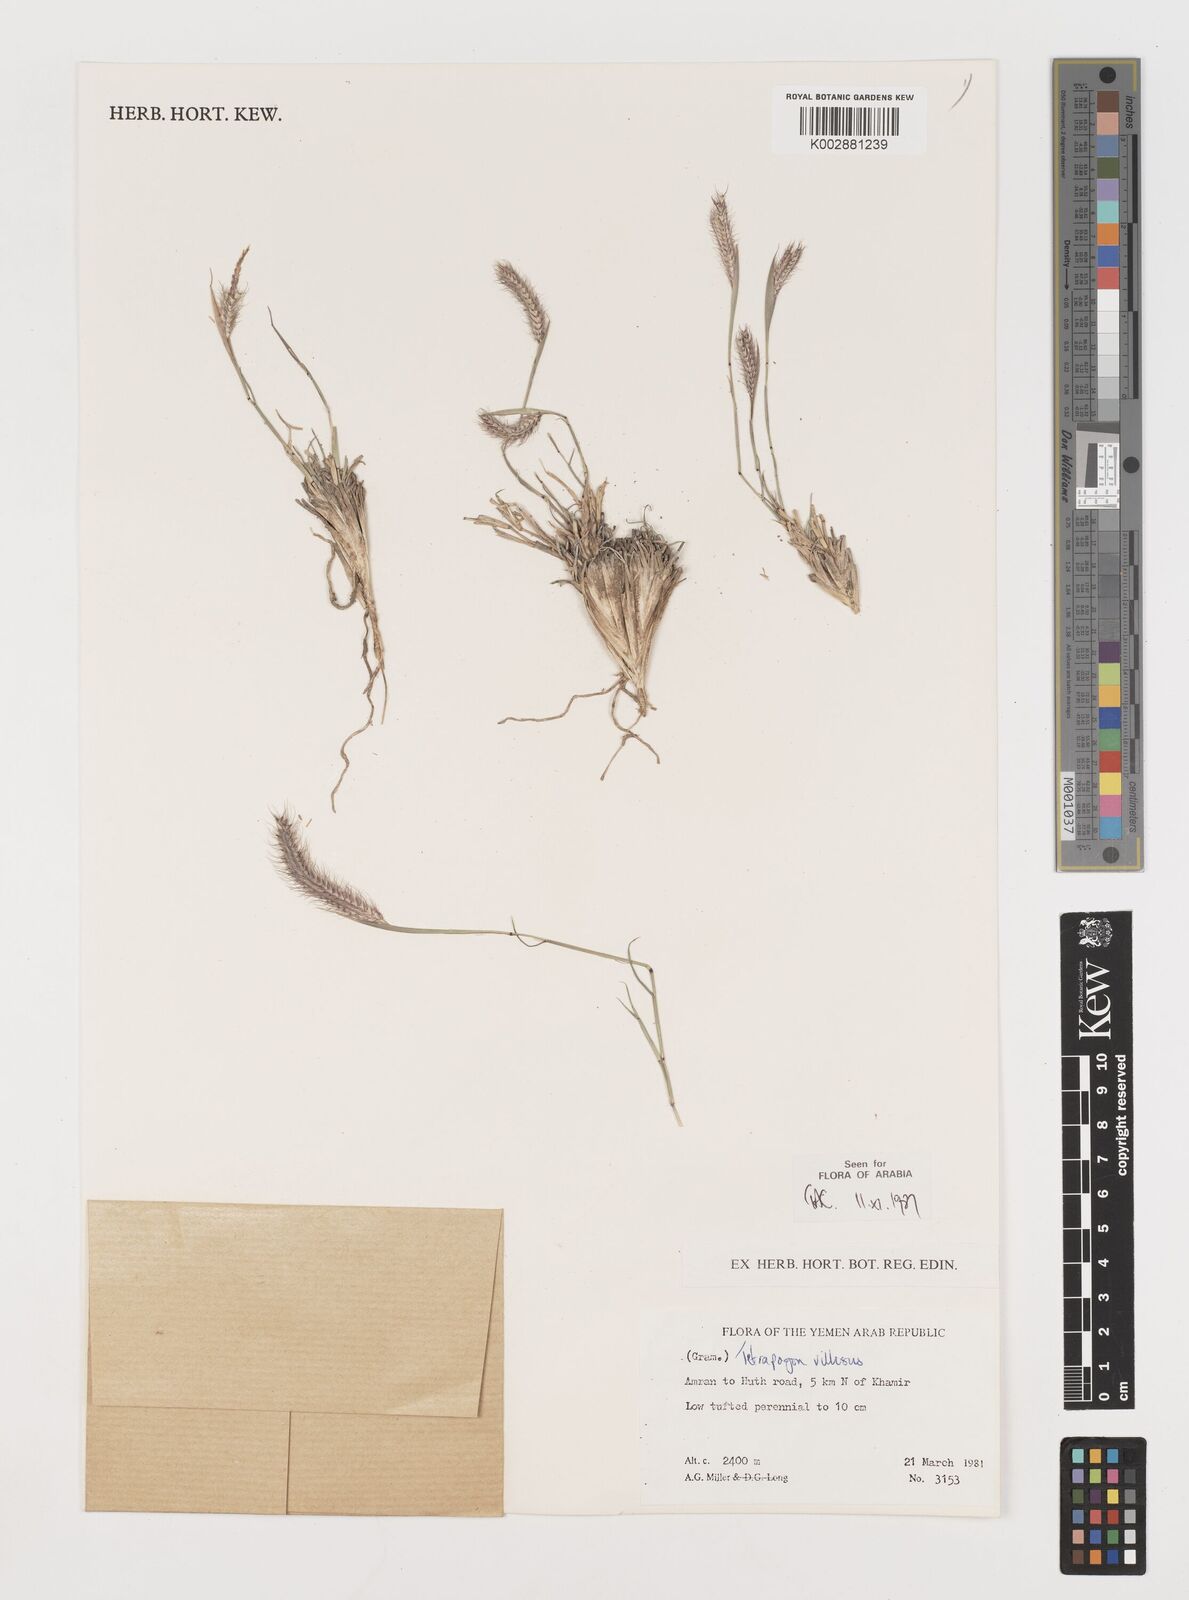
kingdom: Plantae
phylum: Tracheophyta
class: Liliopsida
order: Poales
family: Poaceae
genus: Tetrapogon
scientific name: Tetrapogon villosus
